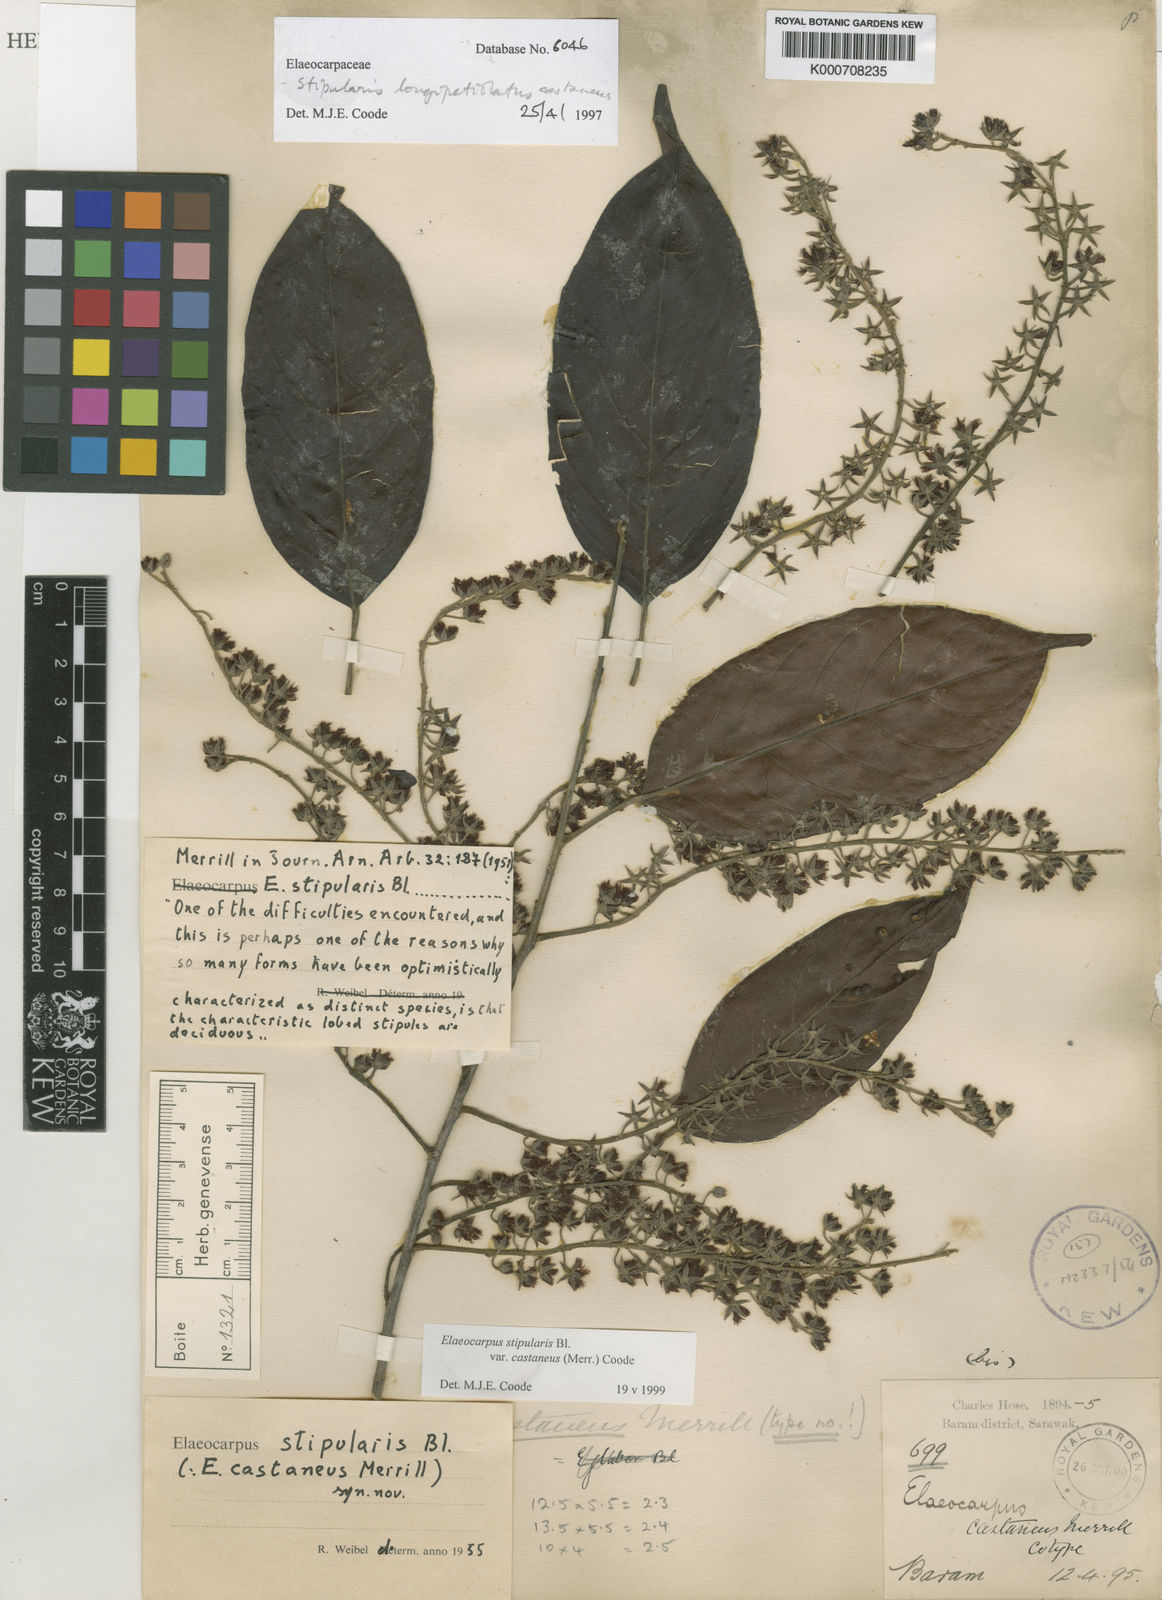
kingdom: Plantae
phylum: Tracheophyta
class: Magnoliopsida
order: Oxalidales
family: Elaeocarpaceae
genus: Elaeocarpus
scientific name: Elaeocarpus stipularis
